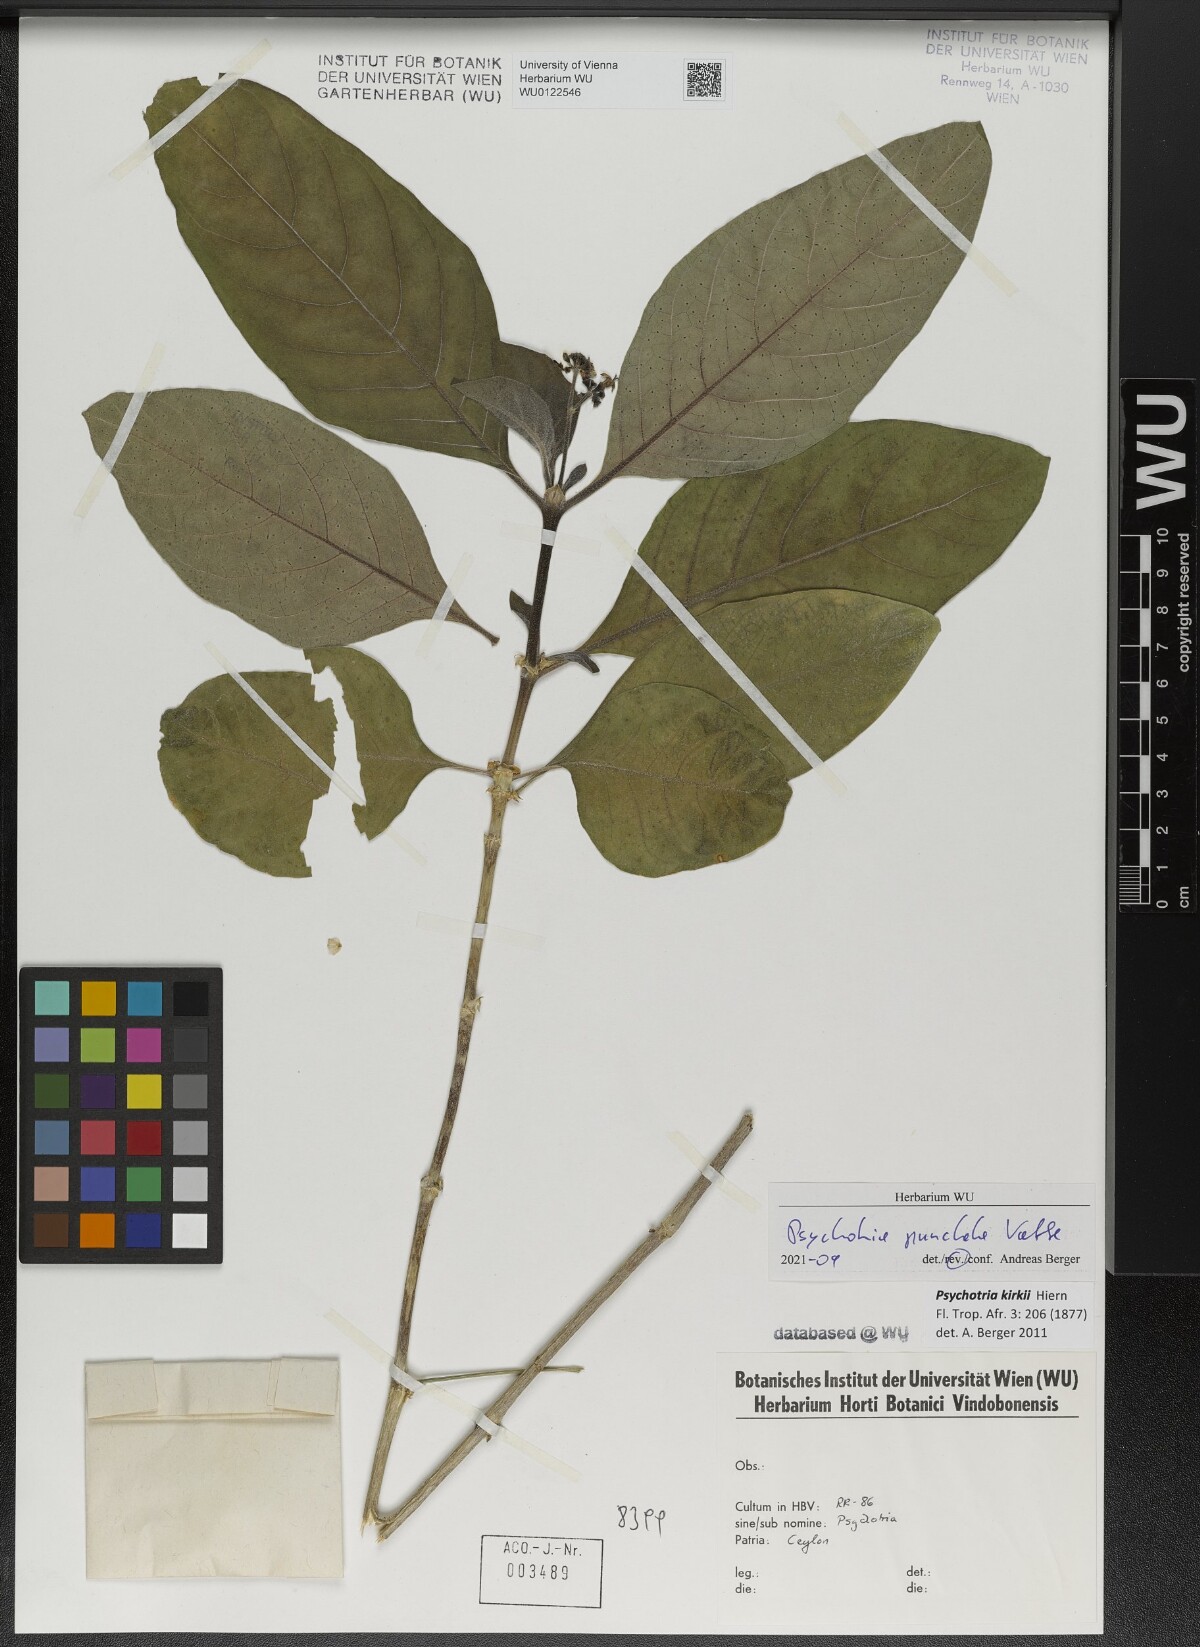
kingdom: Plantae
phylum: Tracheophyta
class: Magnoliopsida
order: Gentianales
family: Rubiaceae
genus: Psychotria
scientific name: Psychotria punctata
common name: Dotted wild coffee
